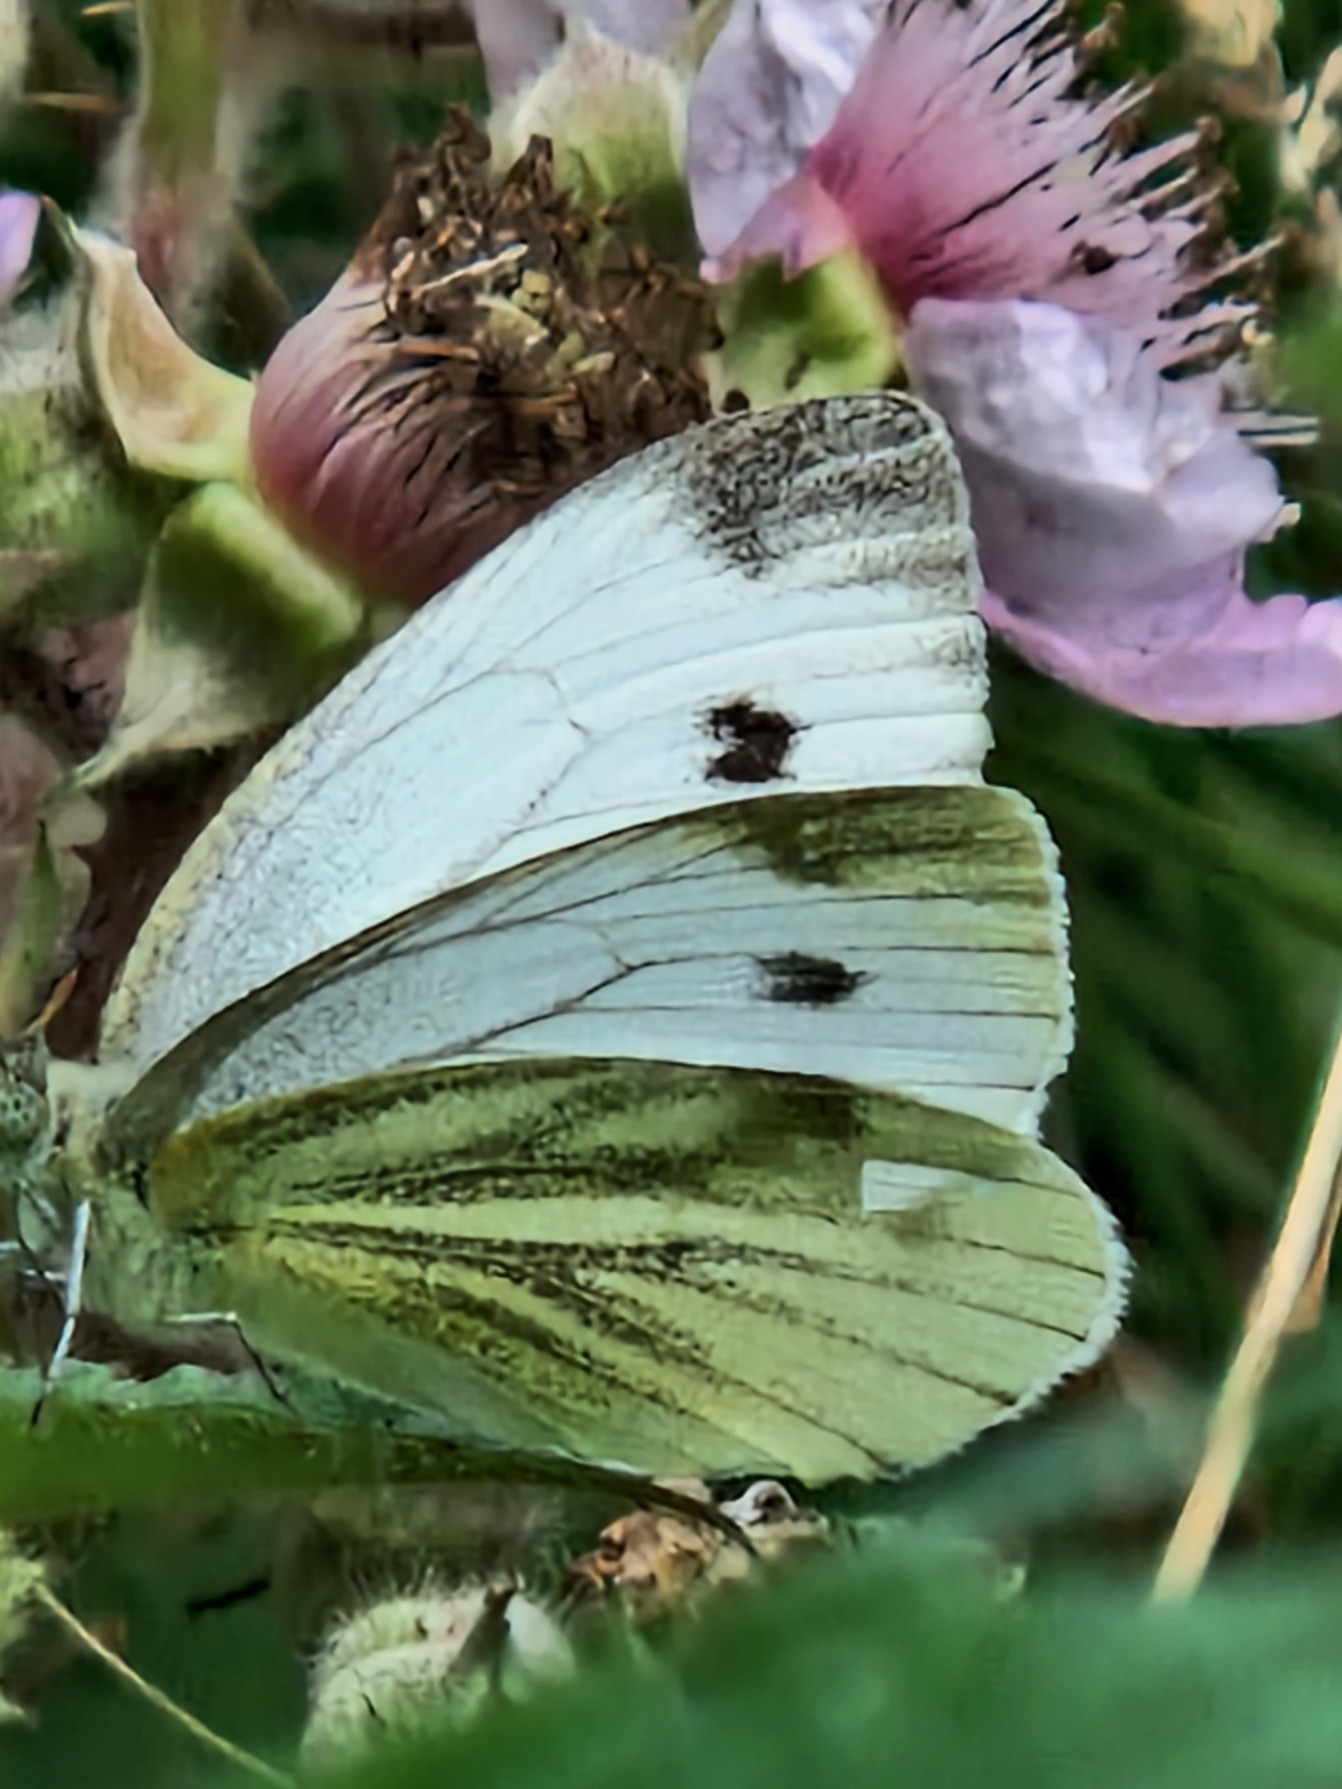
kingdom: Animalia
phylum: Arthropoda
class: Insecta
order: Lepidoptera
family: Pieridae
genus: Pieris
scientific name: Pieris napi
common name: Grønåret kålsommerfugl
